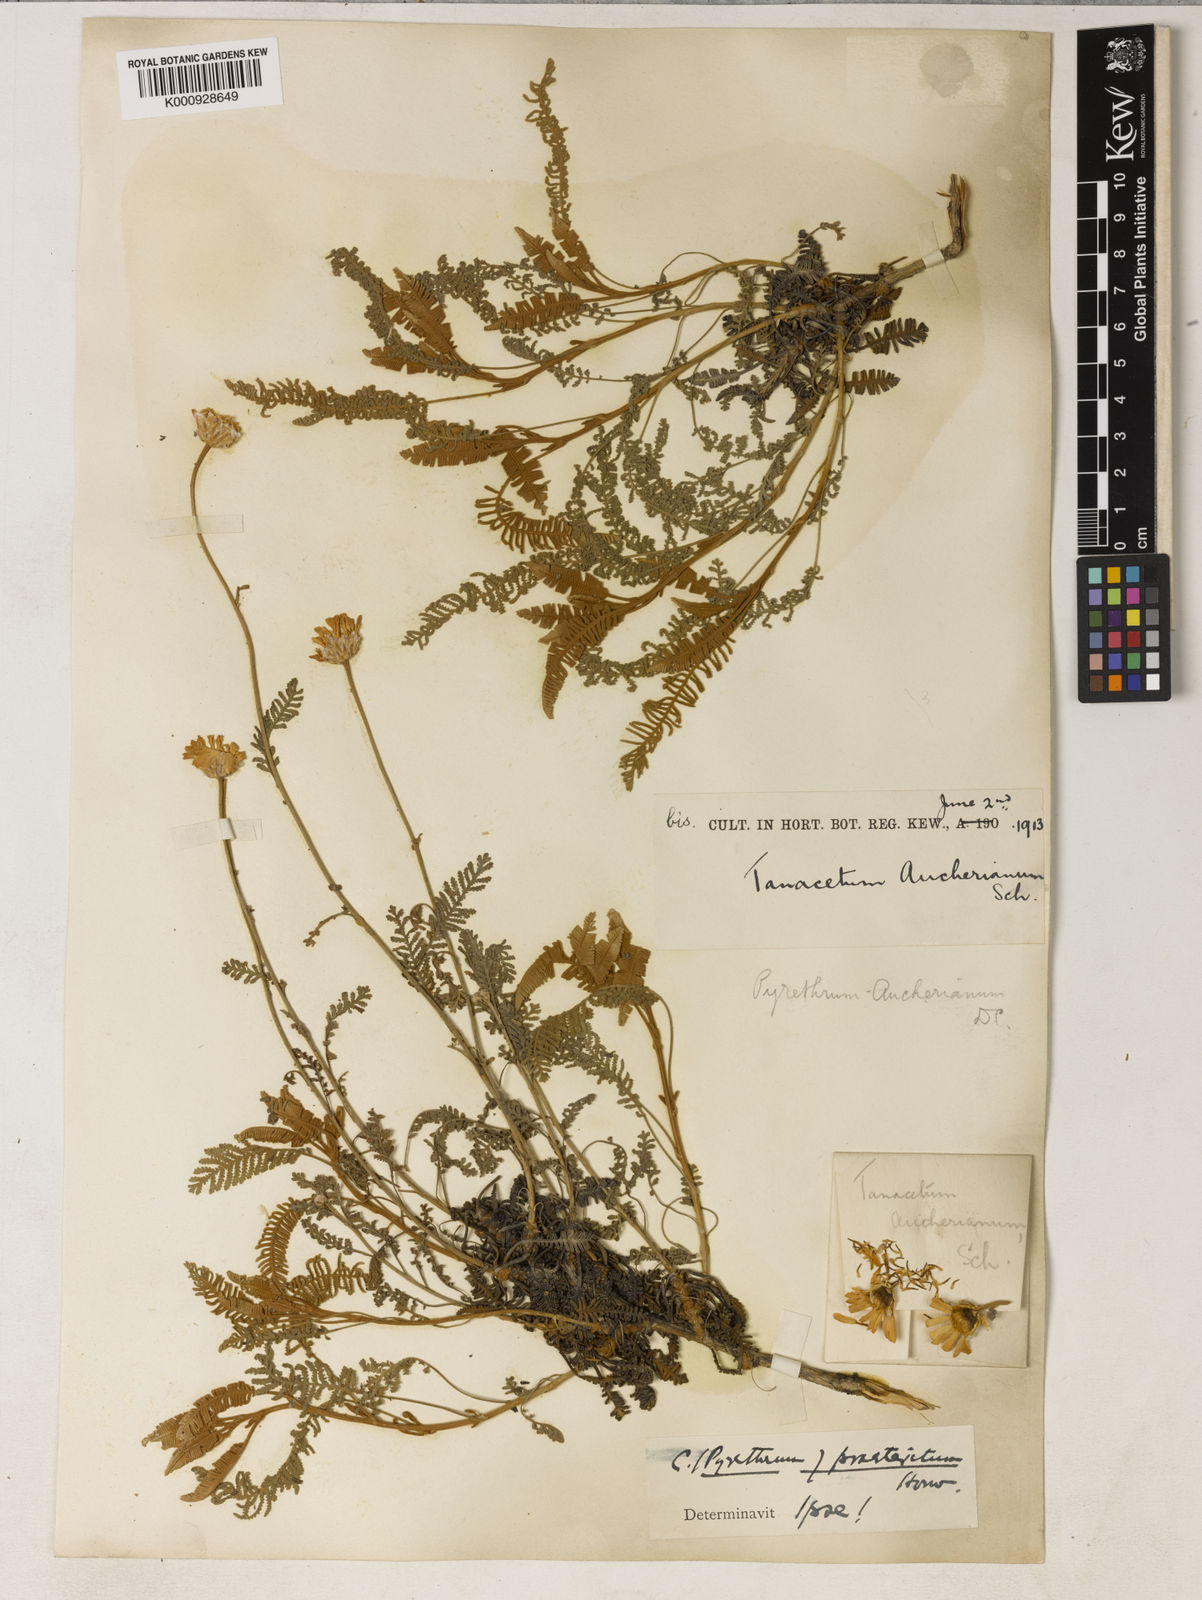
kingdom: Plantae
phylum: Tracheophyta
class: Magnoliopsida
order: Asterales
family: Asteraceae
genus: Tanacetum
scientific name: Tanacetum praeteritum
